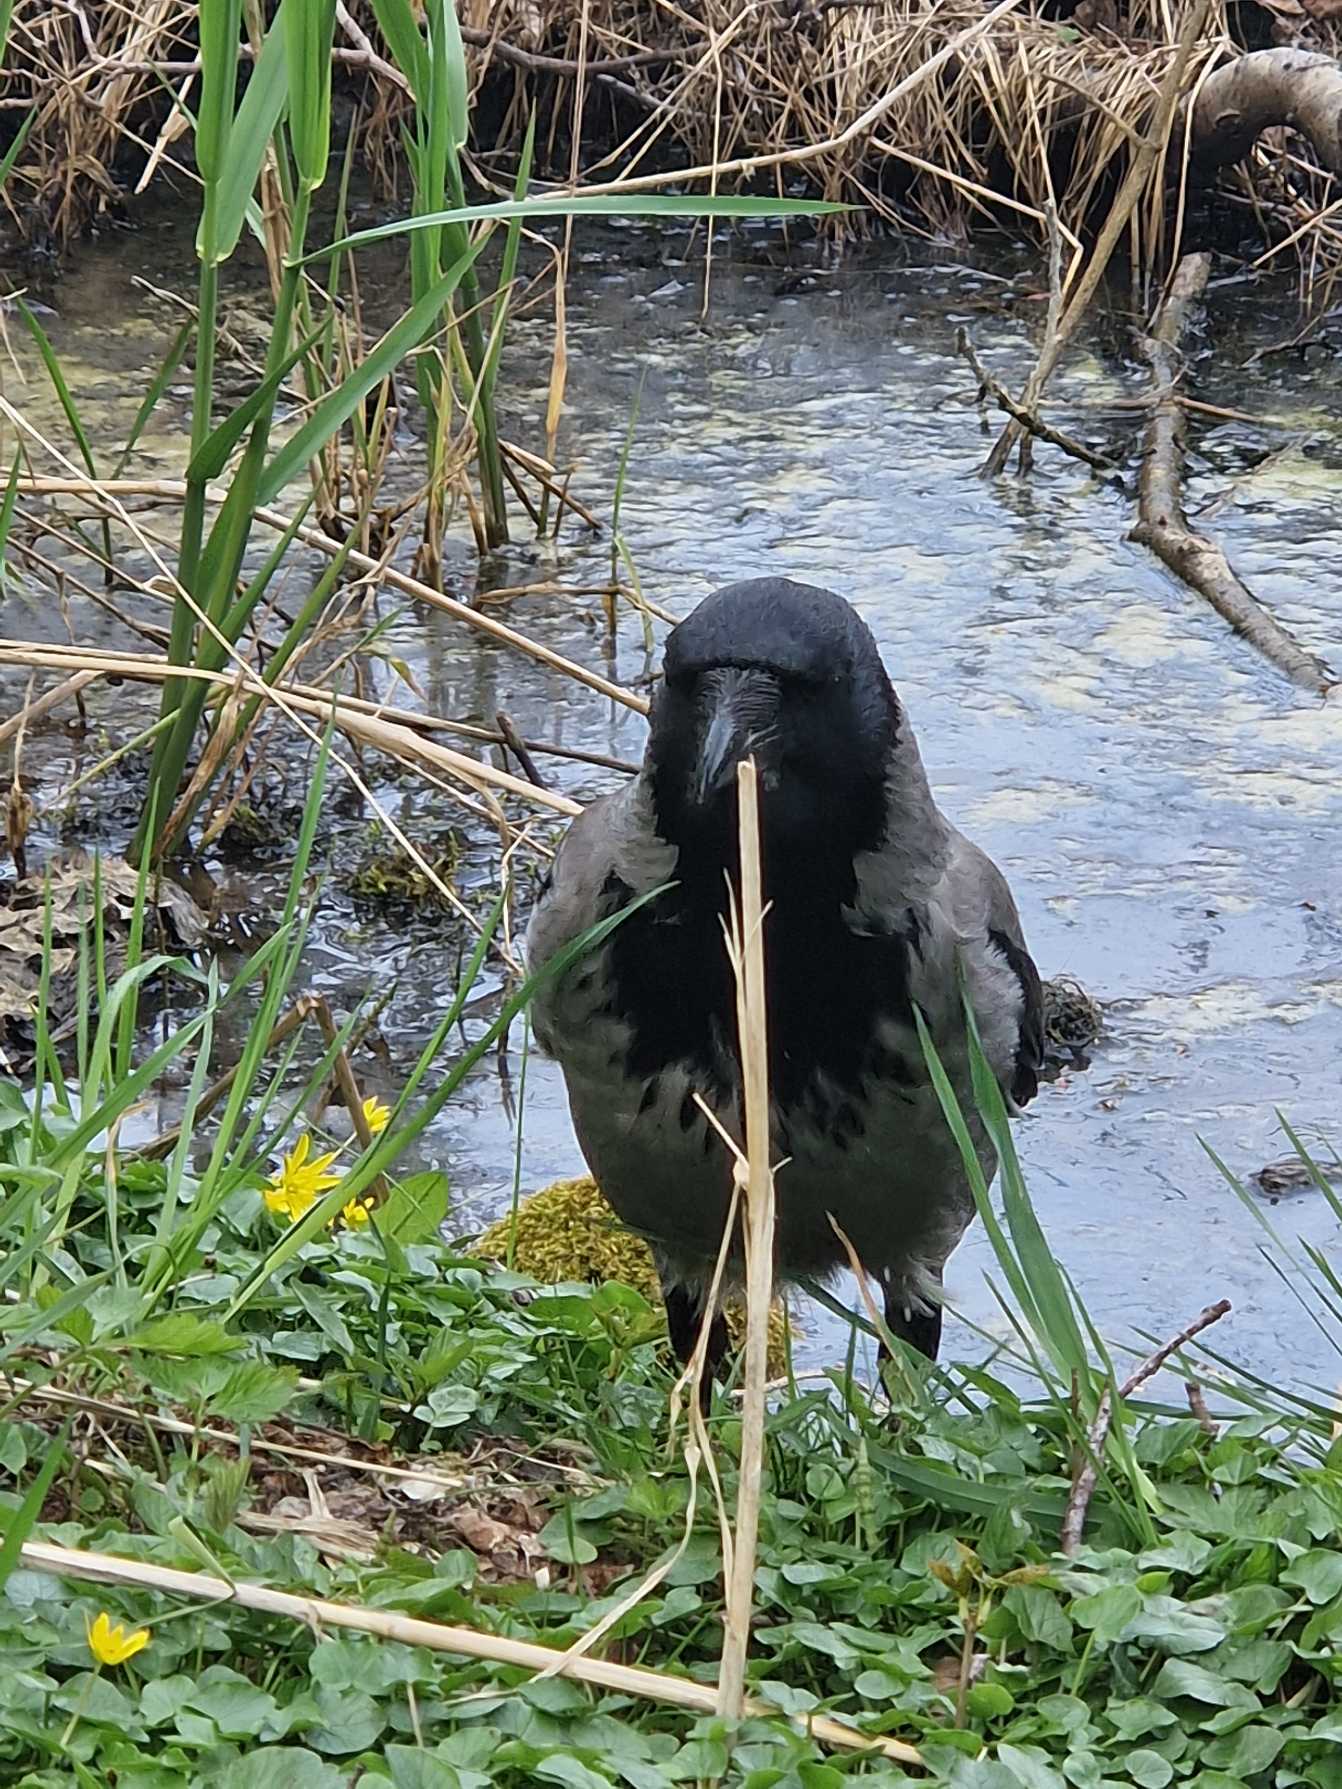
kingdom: Animalia
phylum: Chordata
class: Aves
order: Passeriformes
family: Corvidae
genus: Corvus
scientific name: Corvus cornix
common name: Gråkrage
